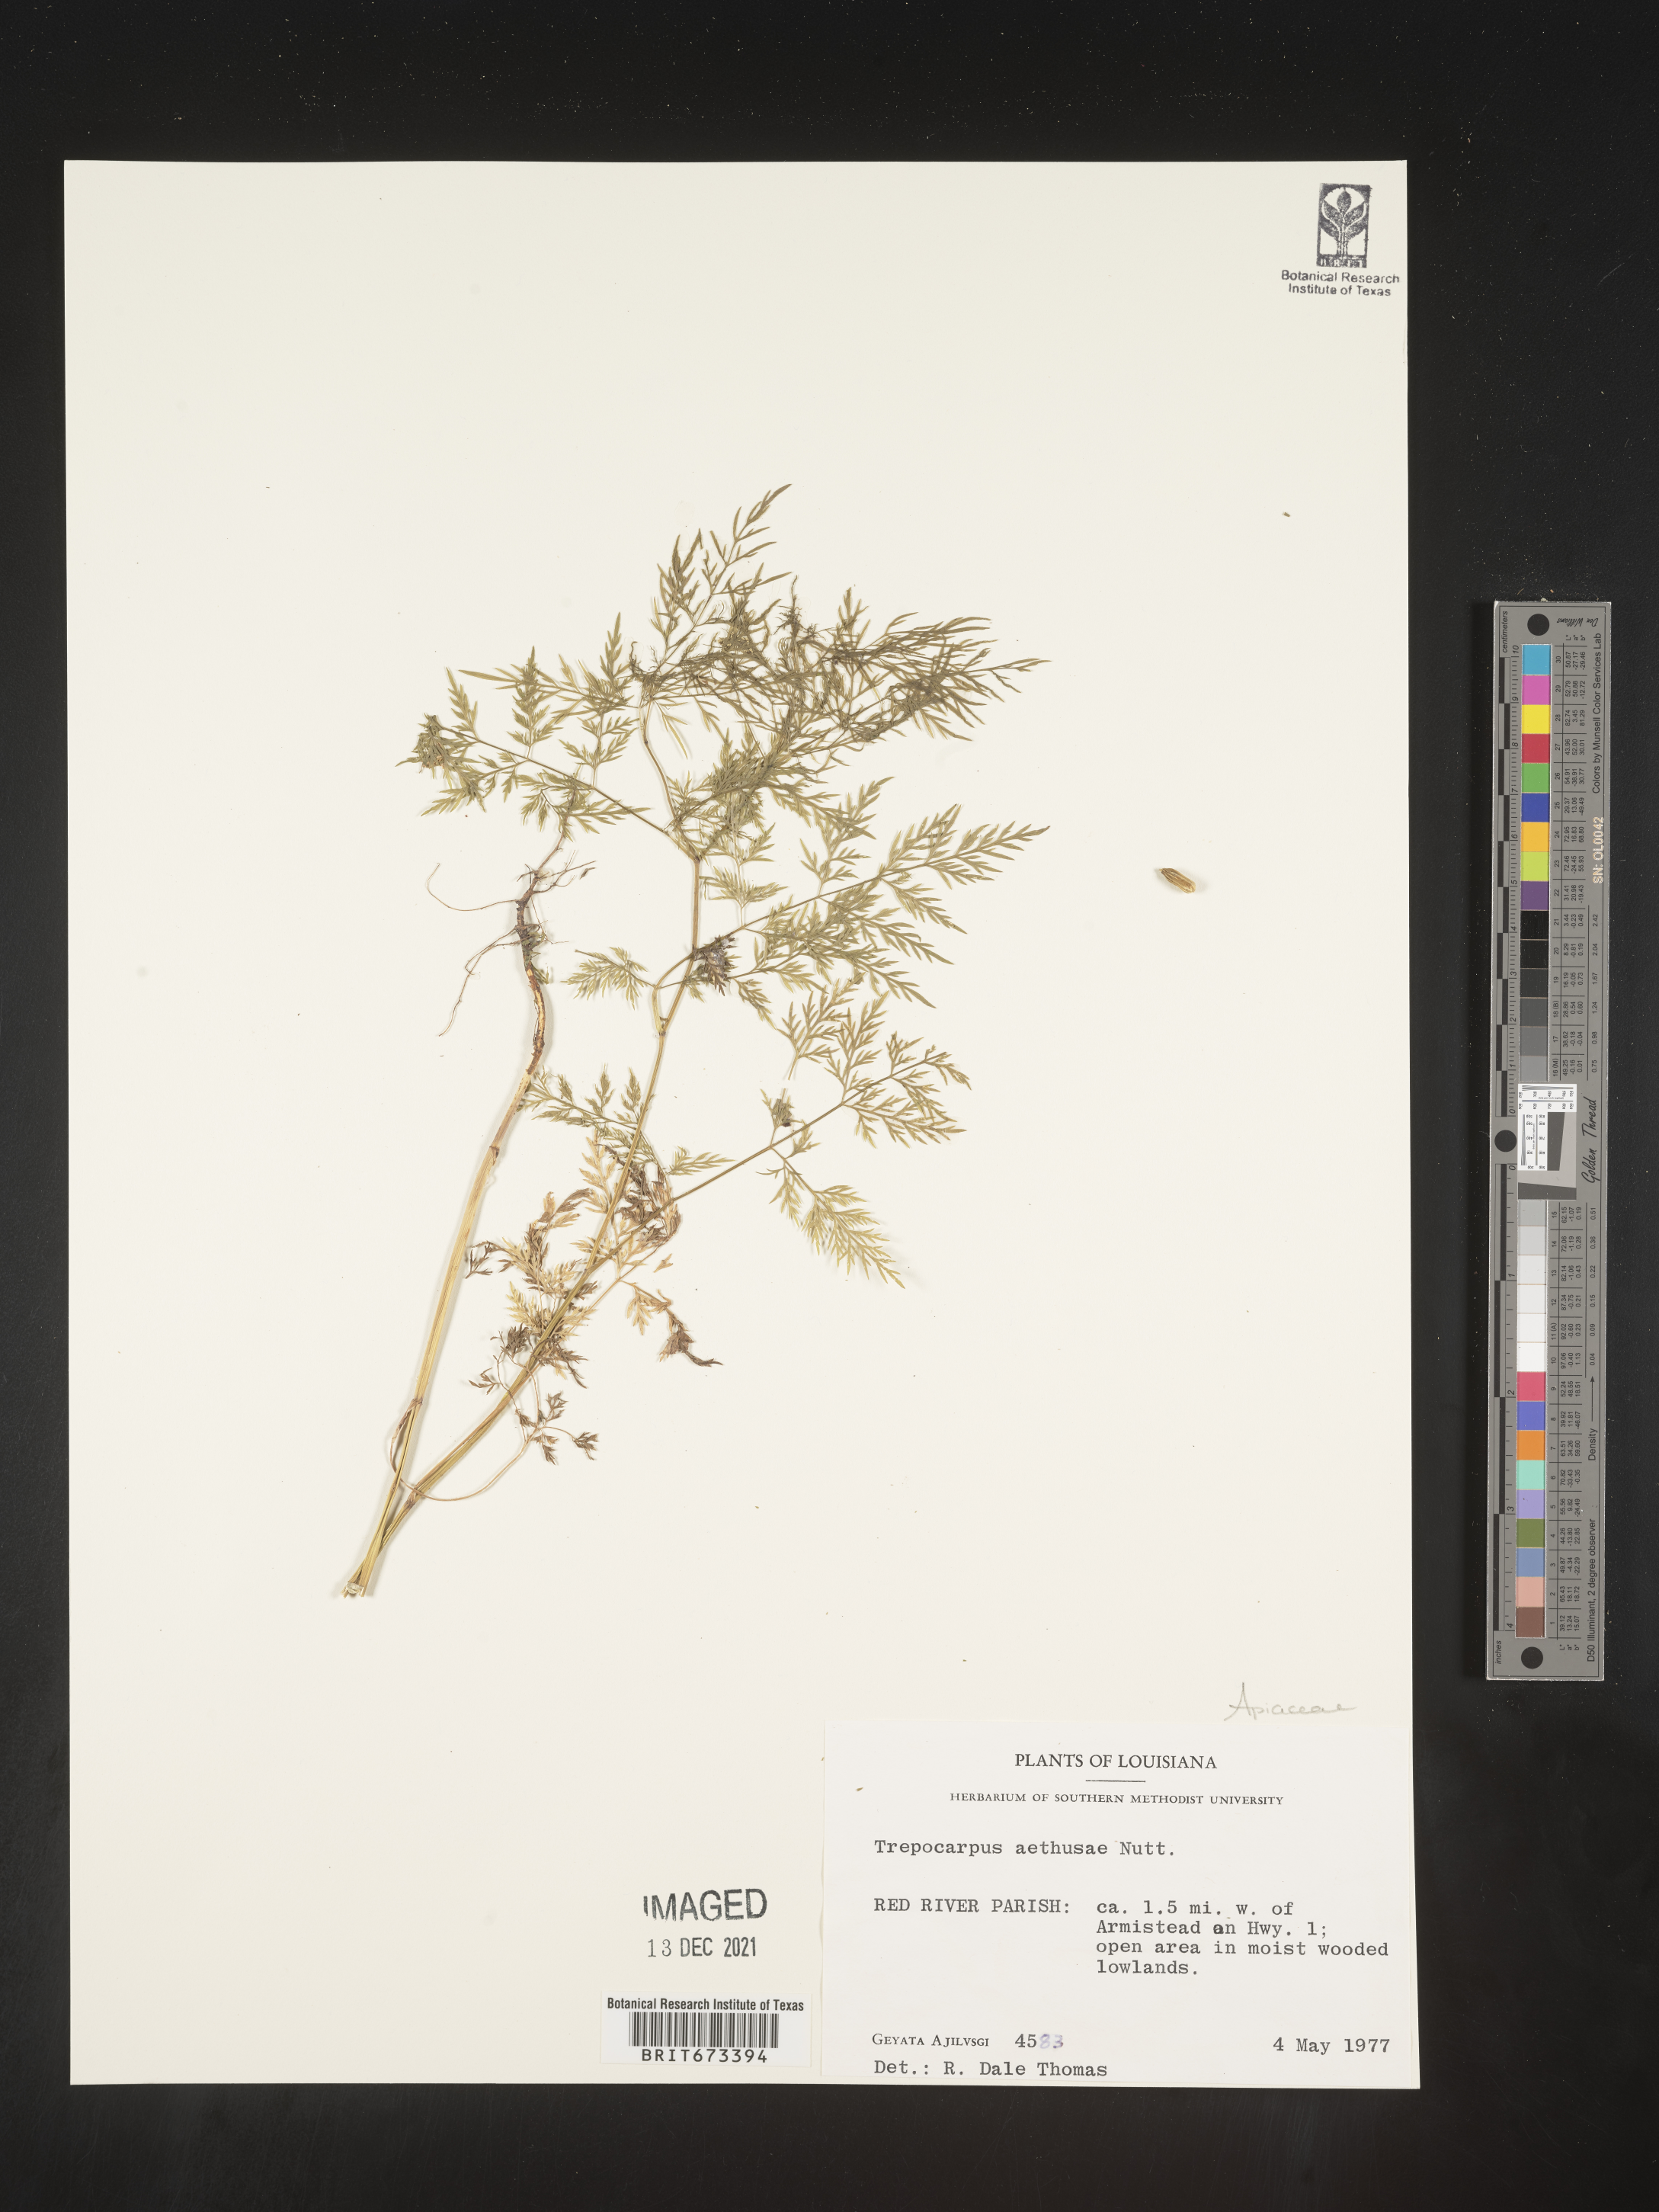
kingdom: Plantae
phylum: Tracheophyta
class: Magnoliopsida
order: Apiales
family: Apiaceae
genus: Trepocarpus
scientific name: Trepocarpus aethusae
